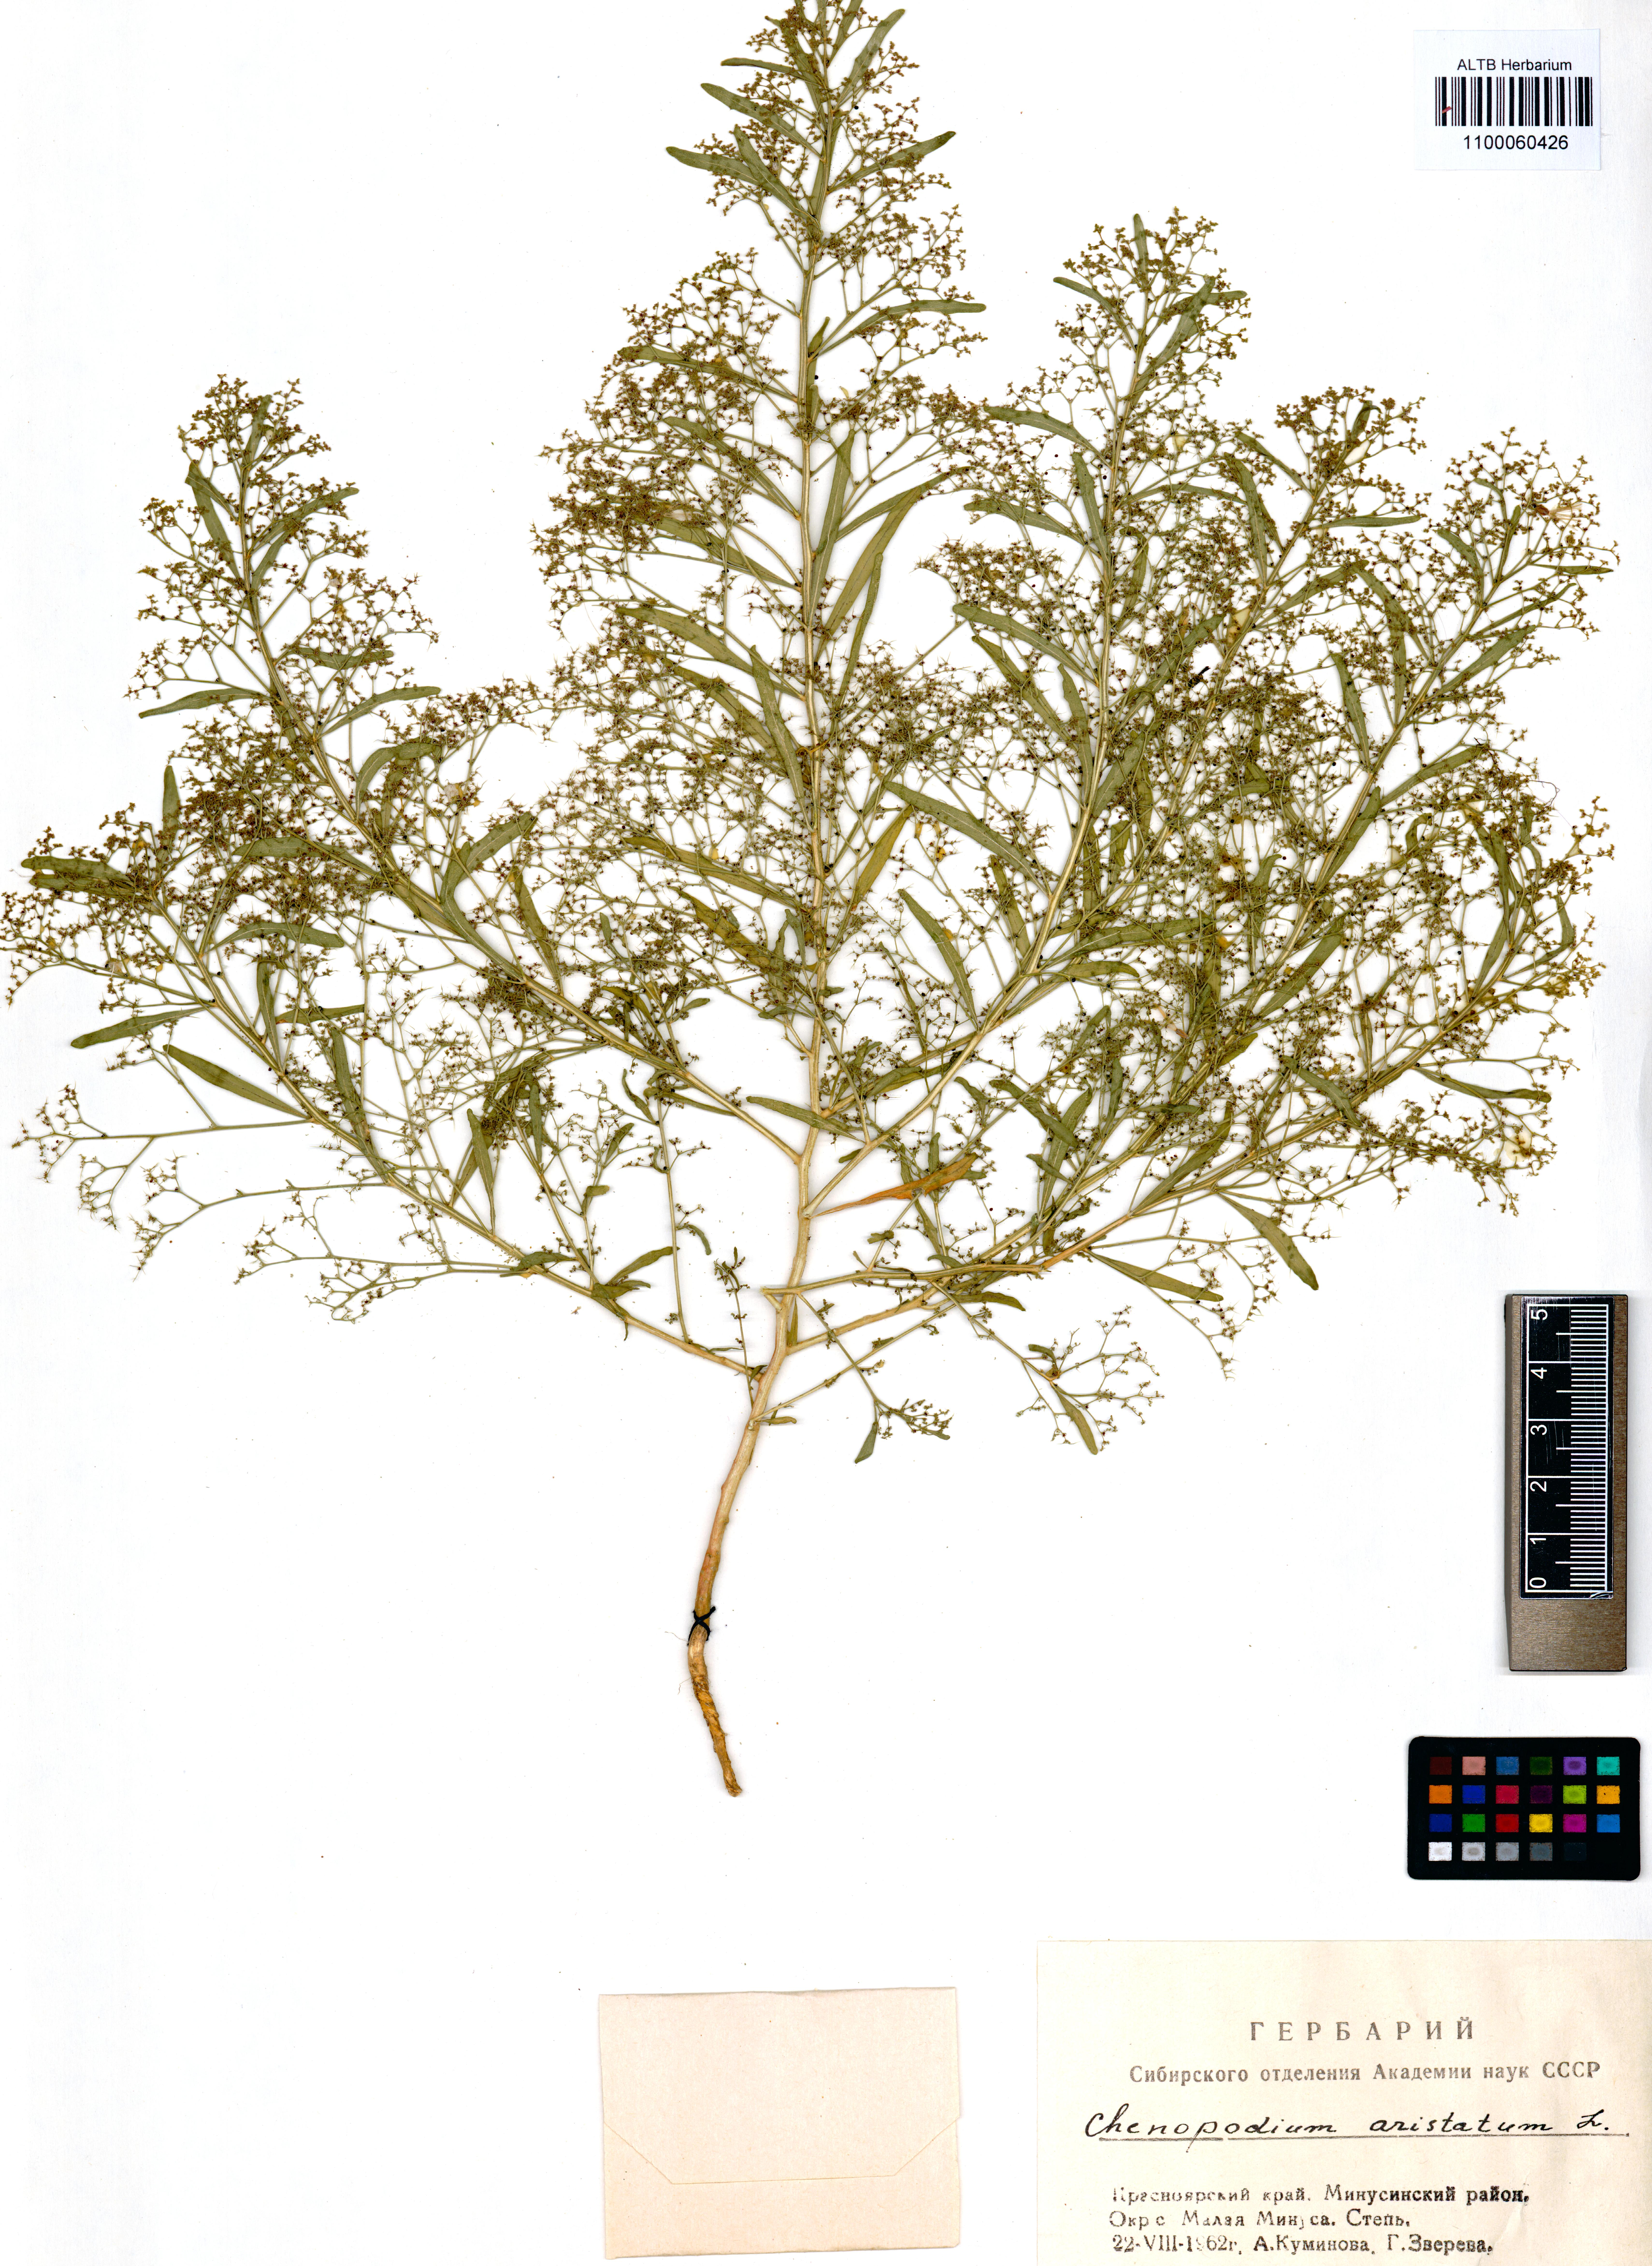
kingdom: Plantae
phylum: Tracheophyta
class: Magnoliopsida
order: Caryophyllales
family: Amaranthaceae
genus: Teloxys
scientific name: Teloxys aristata
